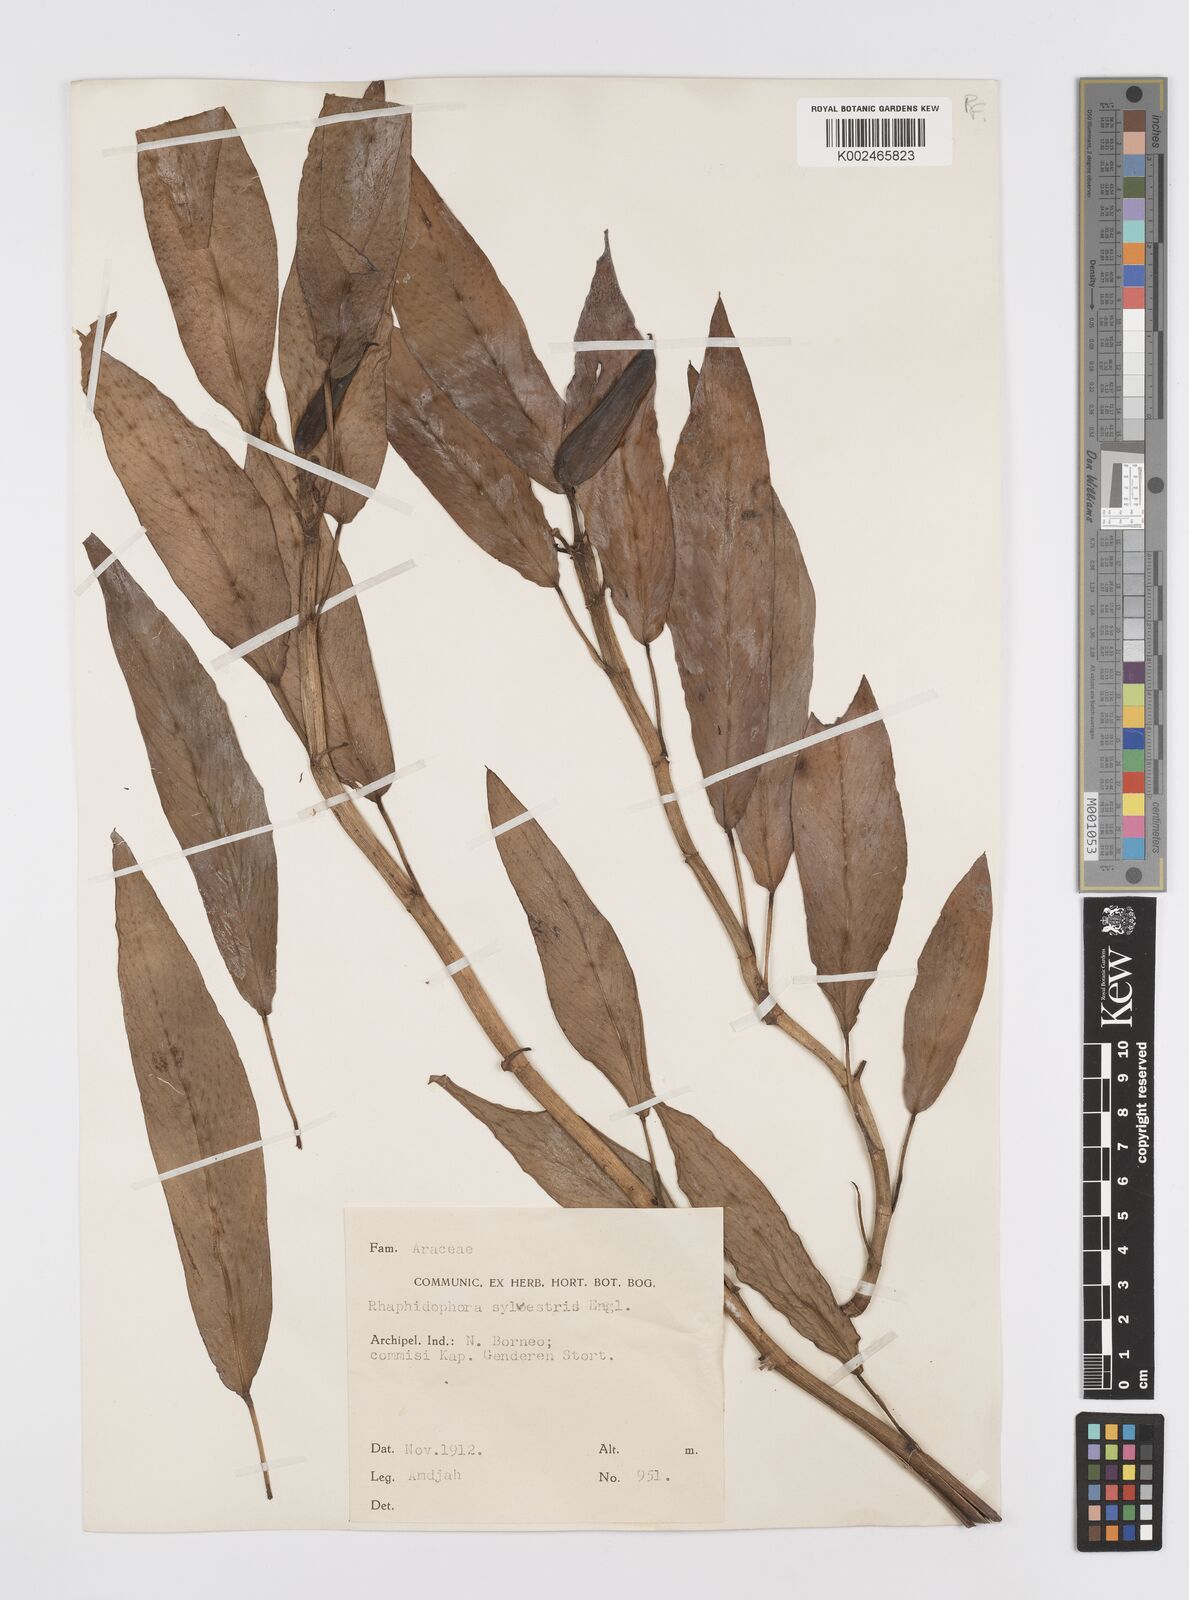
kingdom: Plantae
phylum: Tracheophyta
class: Liliopsida
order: Alismatales
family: Araceae
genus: Rhaphidophora
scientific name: Rhaphidophora minor
